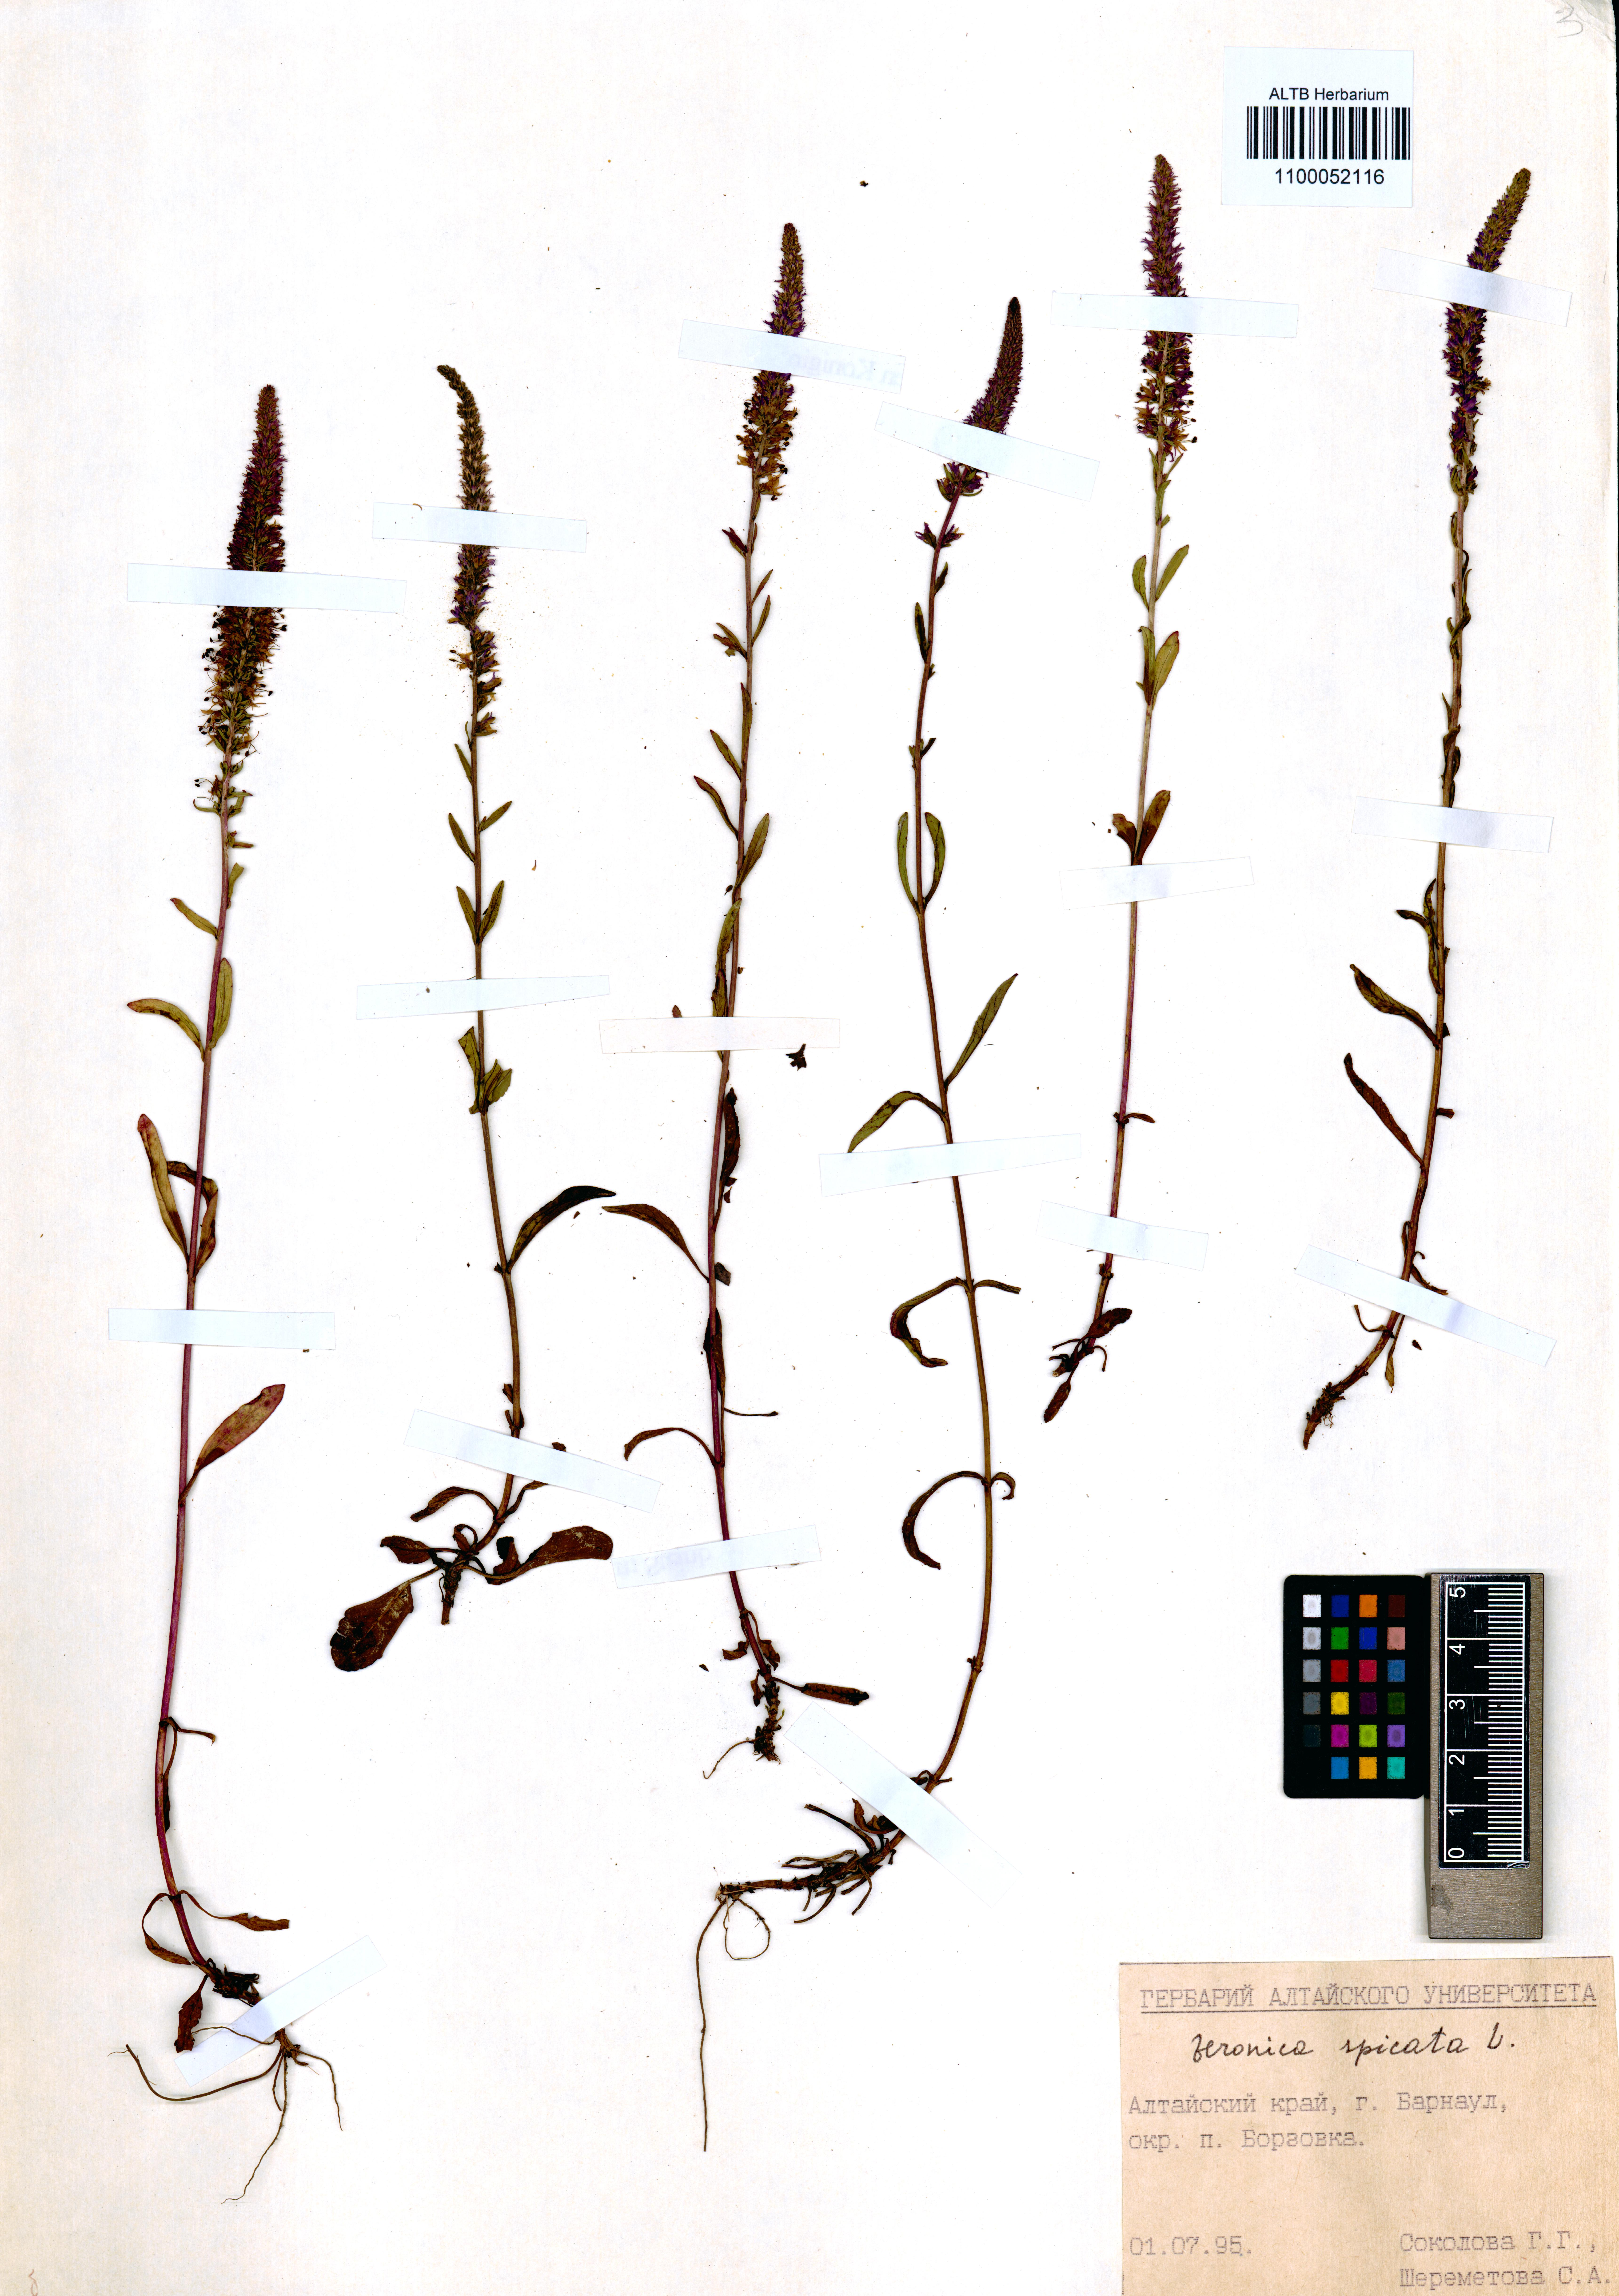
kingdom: Plantae
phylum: Tracheophyta
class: Magnoliopsida
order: Lamiales
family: Plantaginaceae
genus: Veronica
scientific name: Veronica spicata
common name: Spiked speedwell
